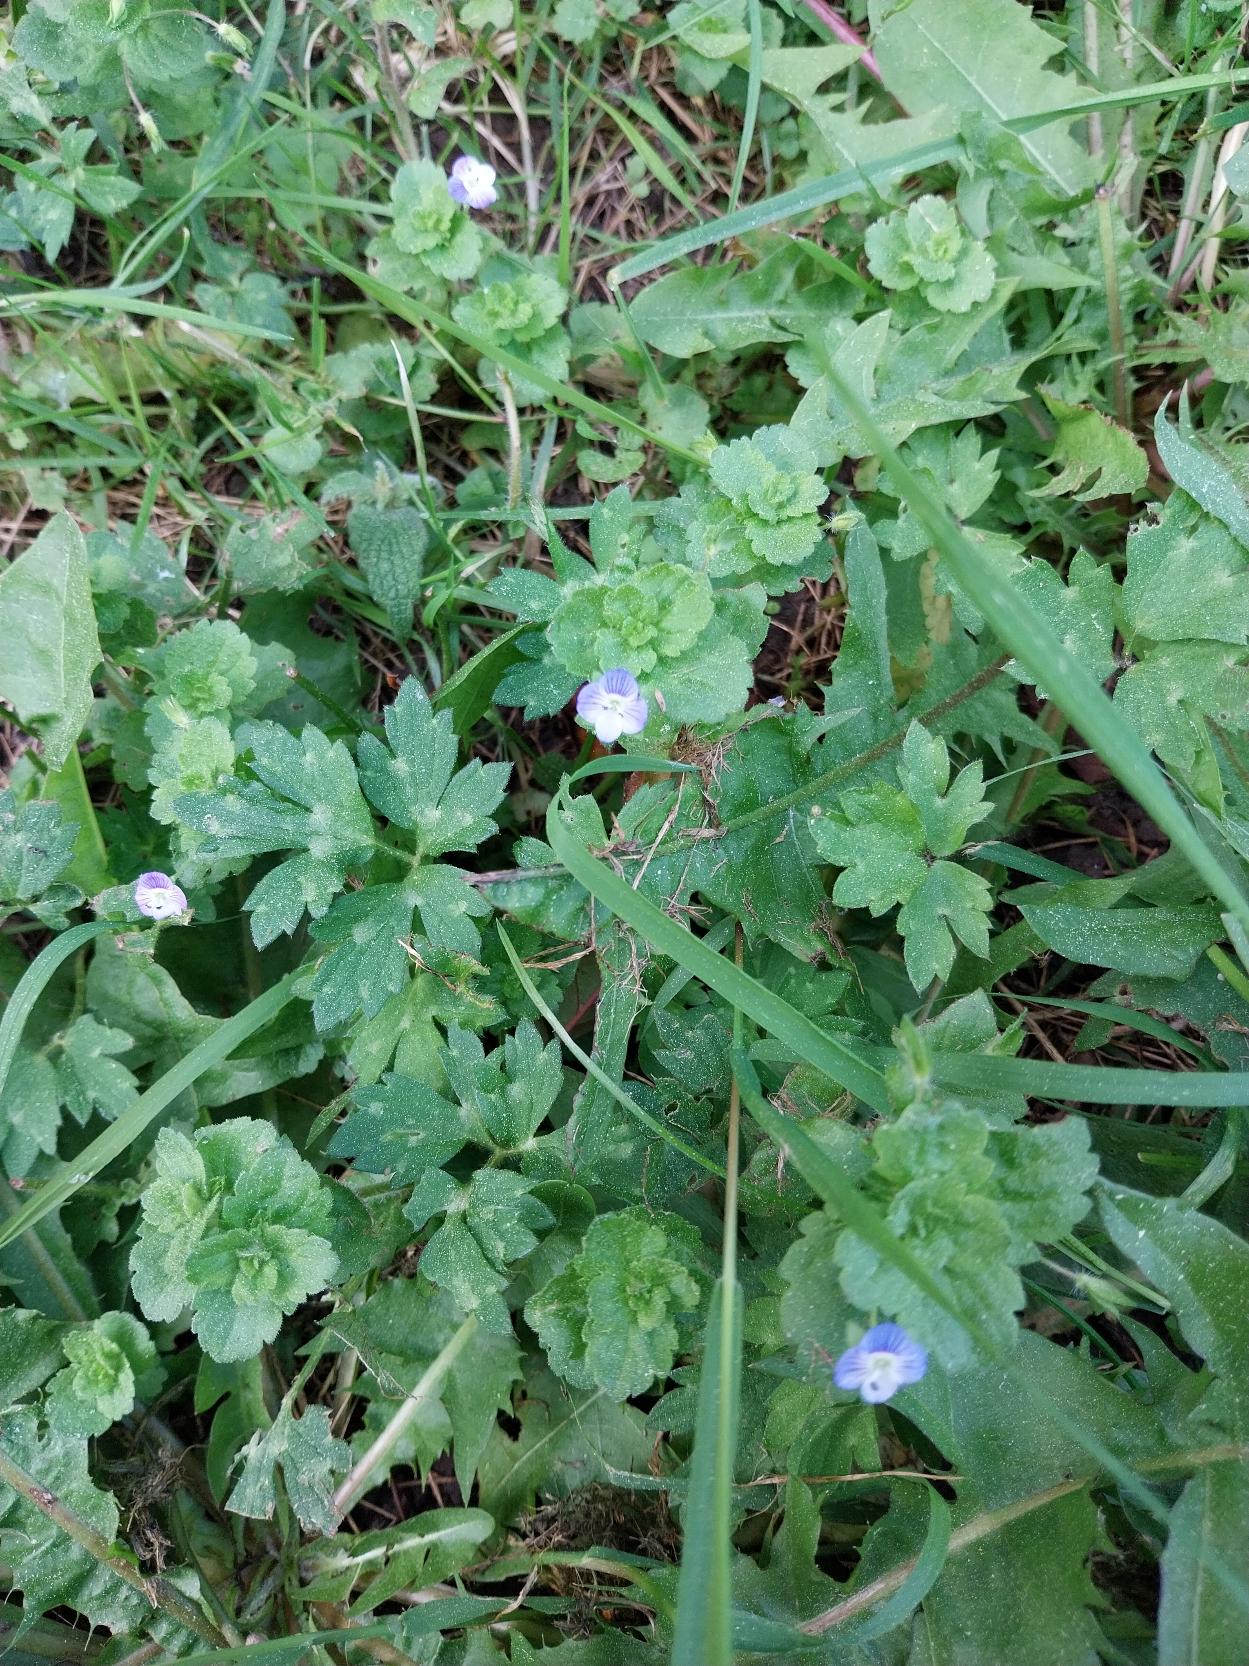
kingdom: Plantae
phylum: Tracheophyta
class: Magnoliopsida
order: Lamiales
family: Plantaginaceae
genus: Veronica
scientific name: Veronica persica
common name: Storkronet ærenpris
